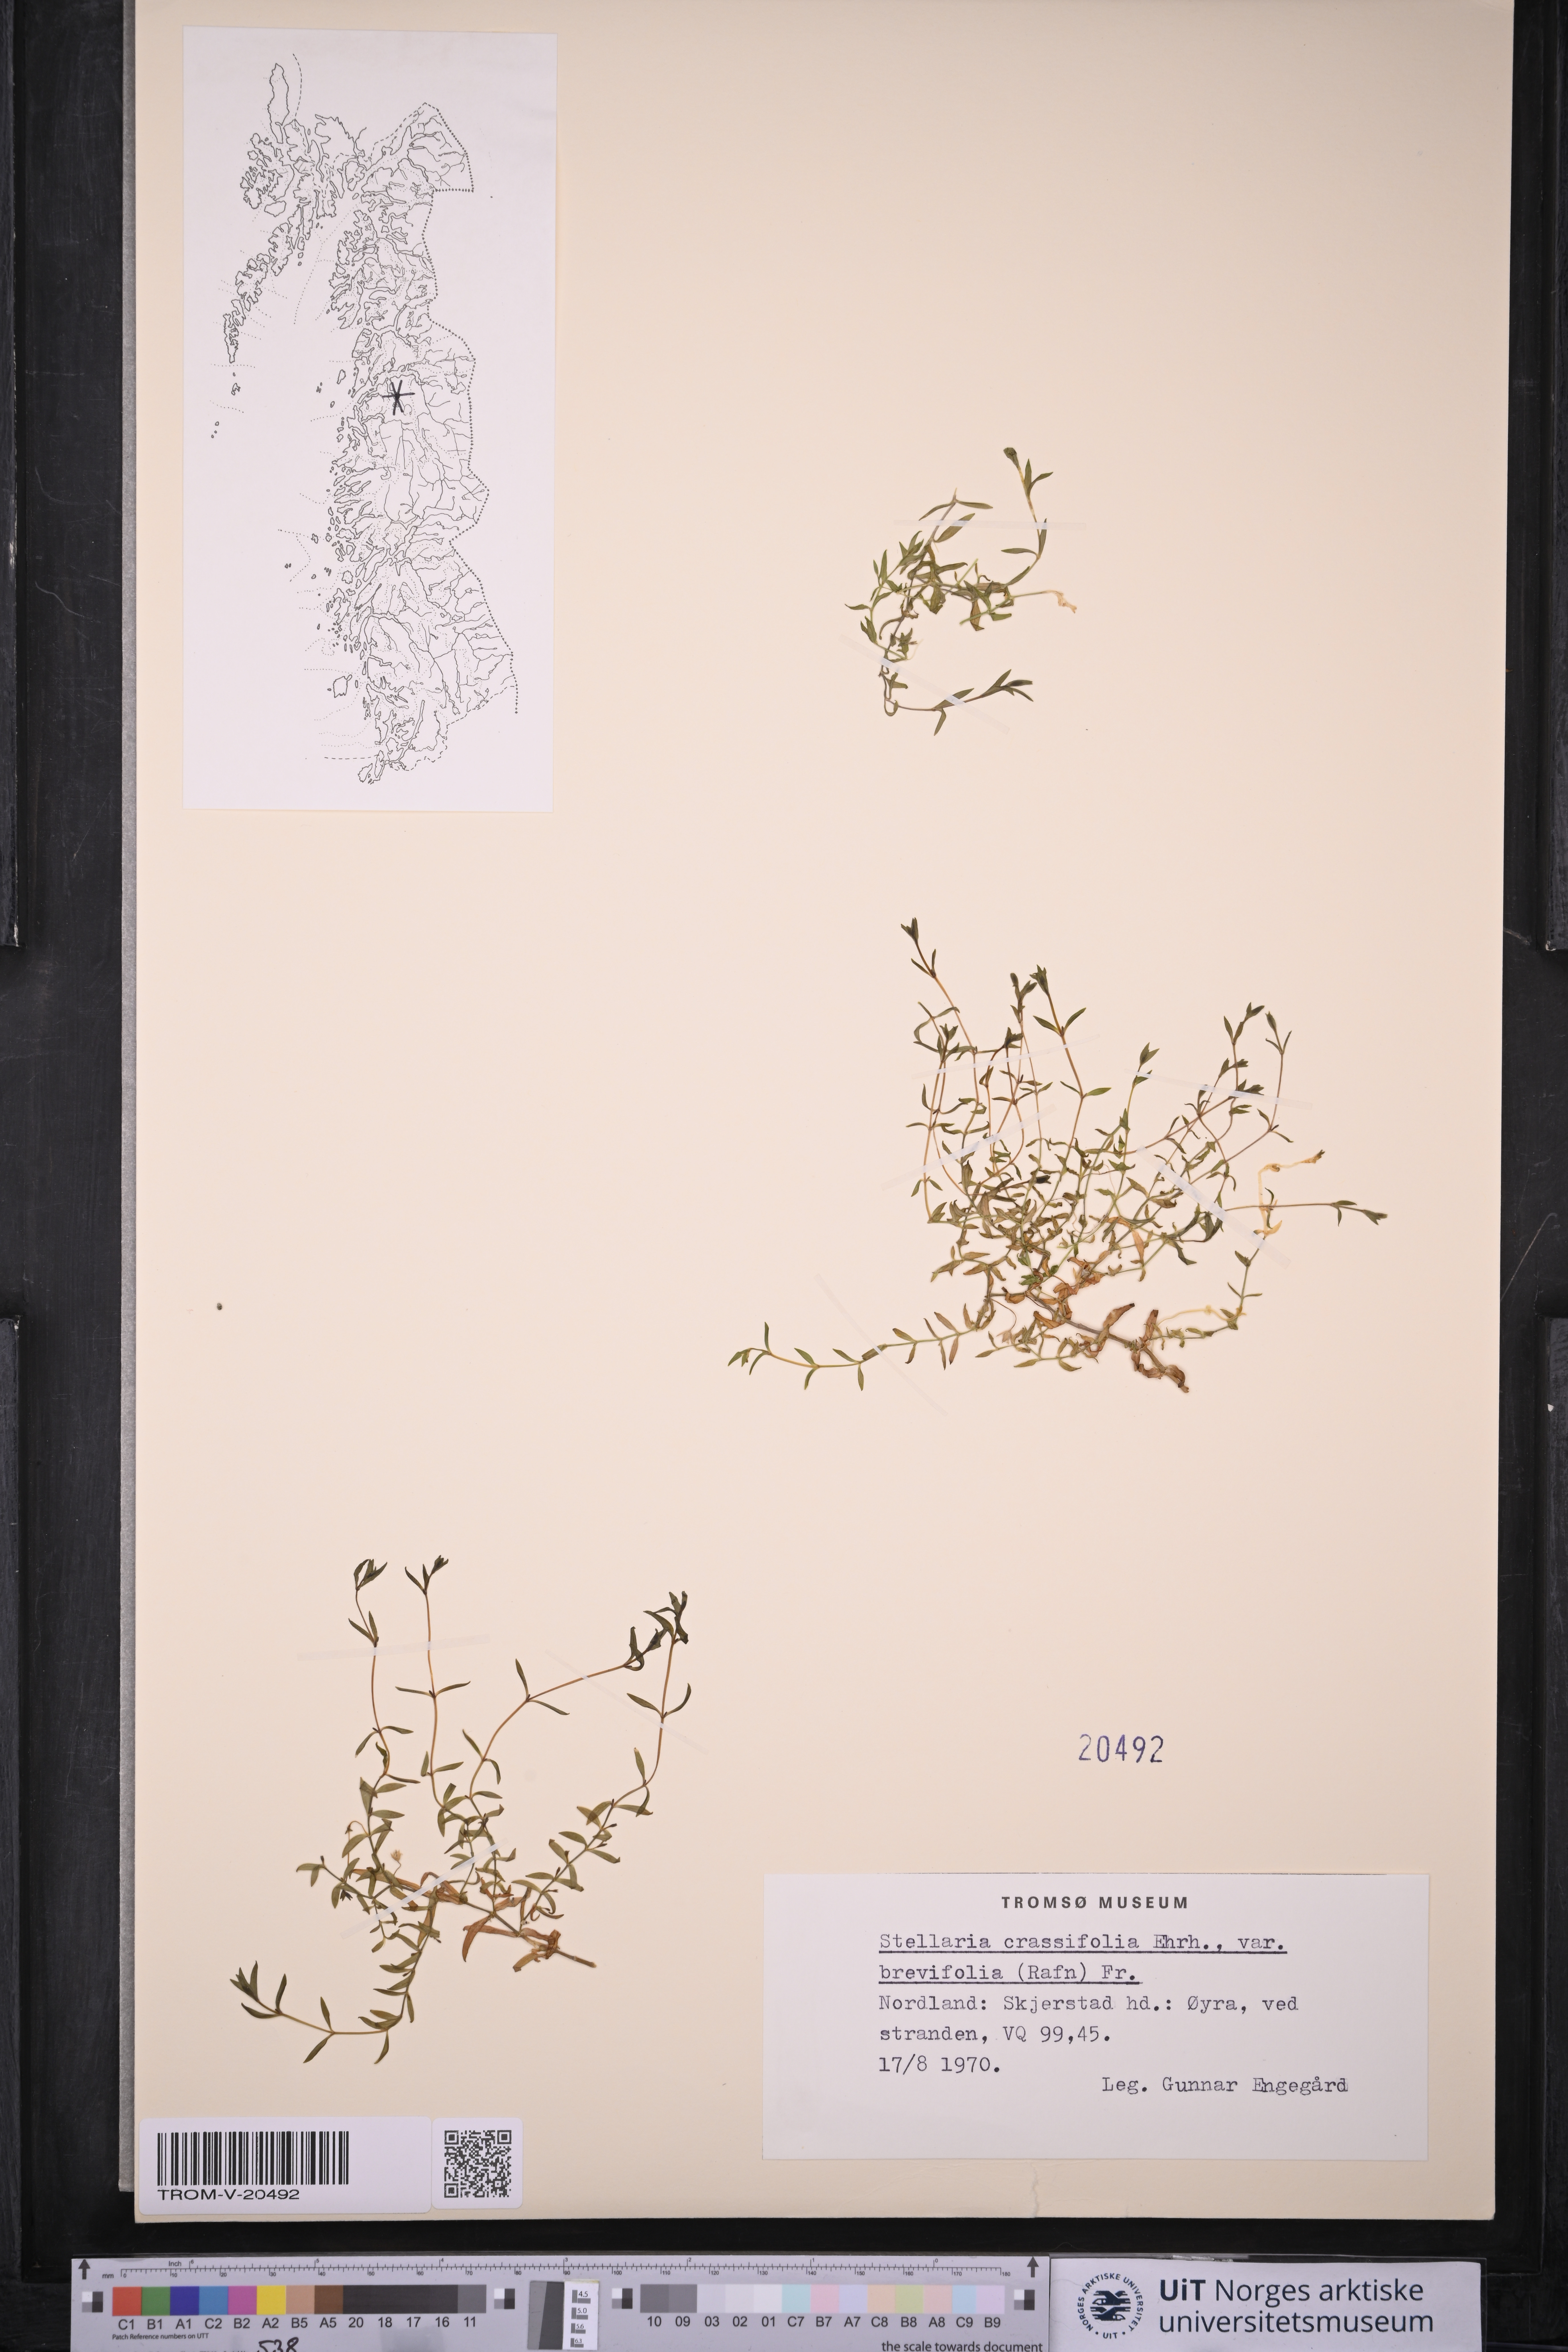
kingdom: Plantae
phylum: Tracheophyta
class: Magnoliopsida
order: Caryophyllales
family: Caryophyllaceae
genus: Stellaria
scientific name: Stellaria crassifolia
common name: Fleshy starwort
